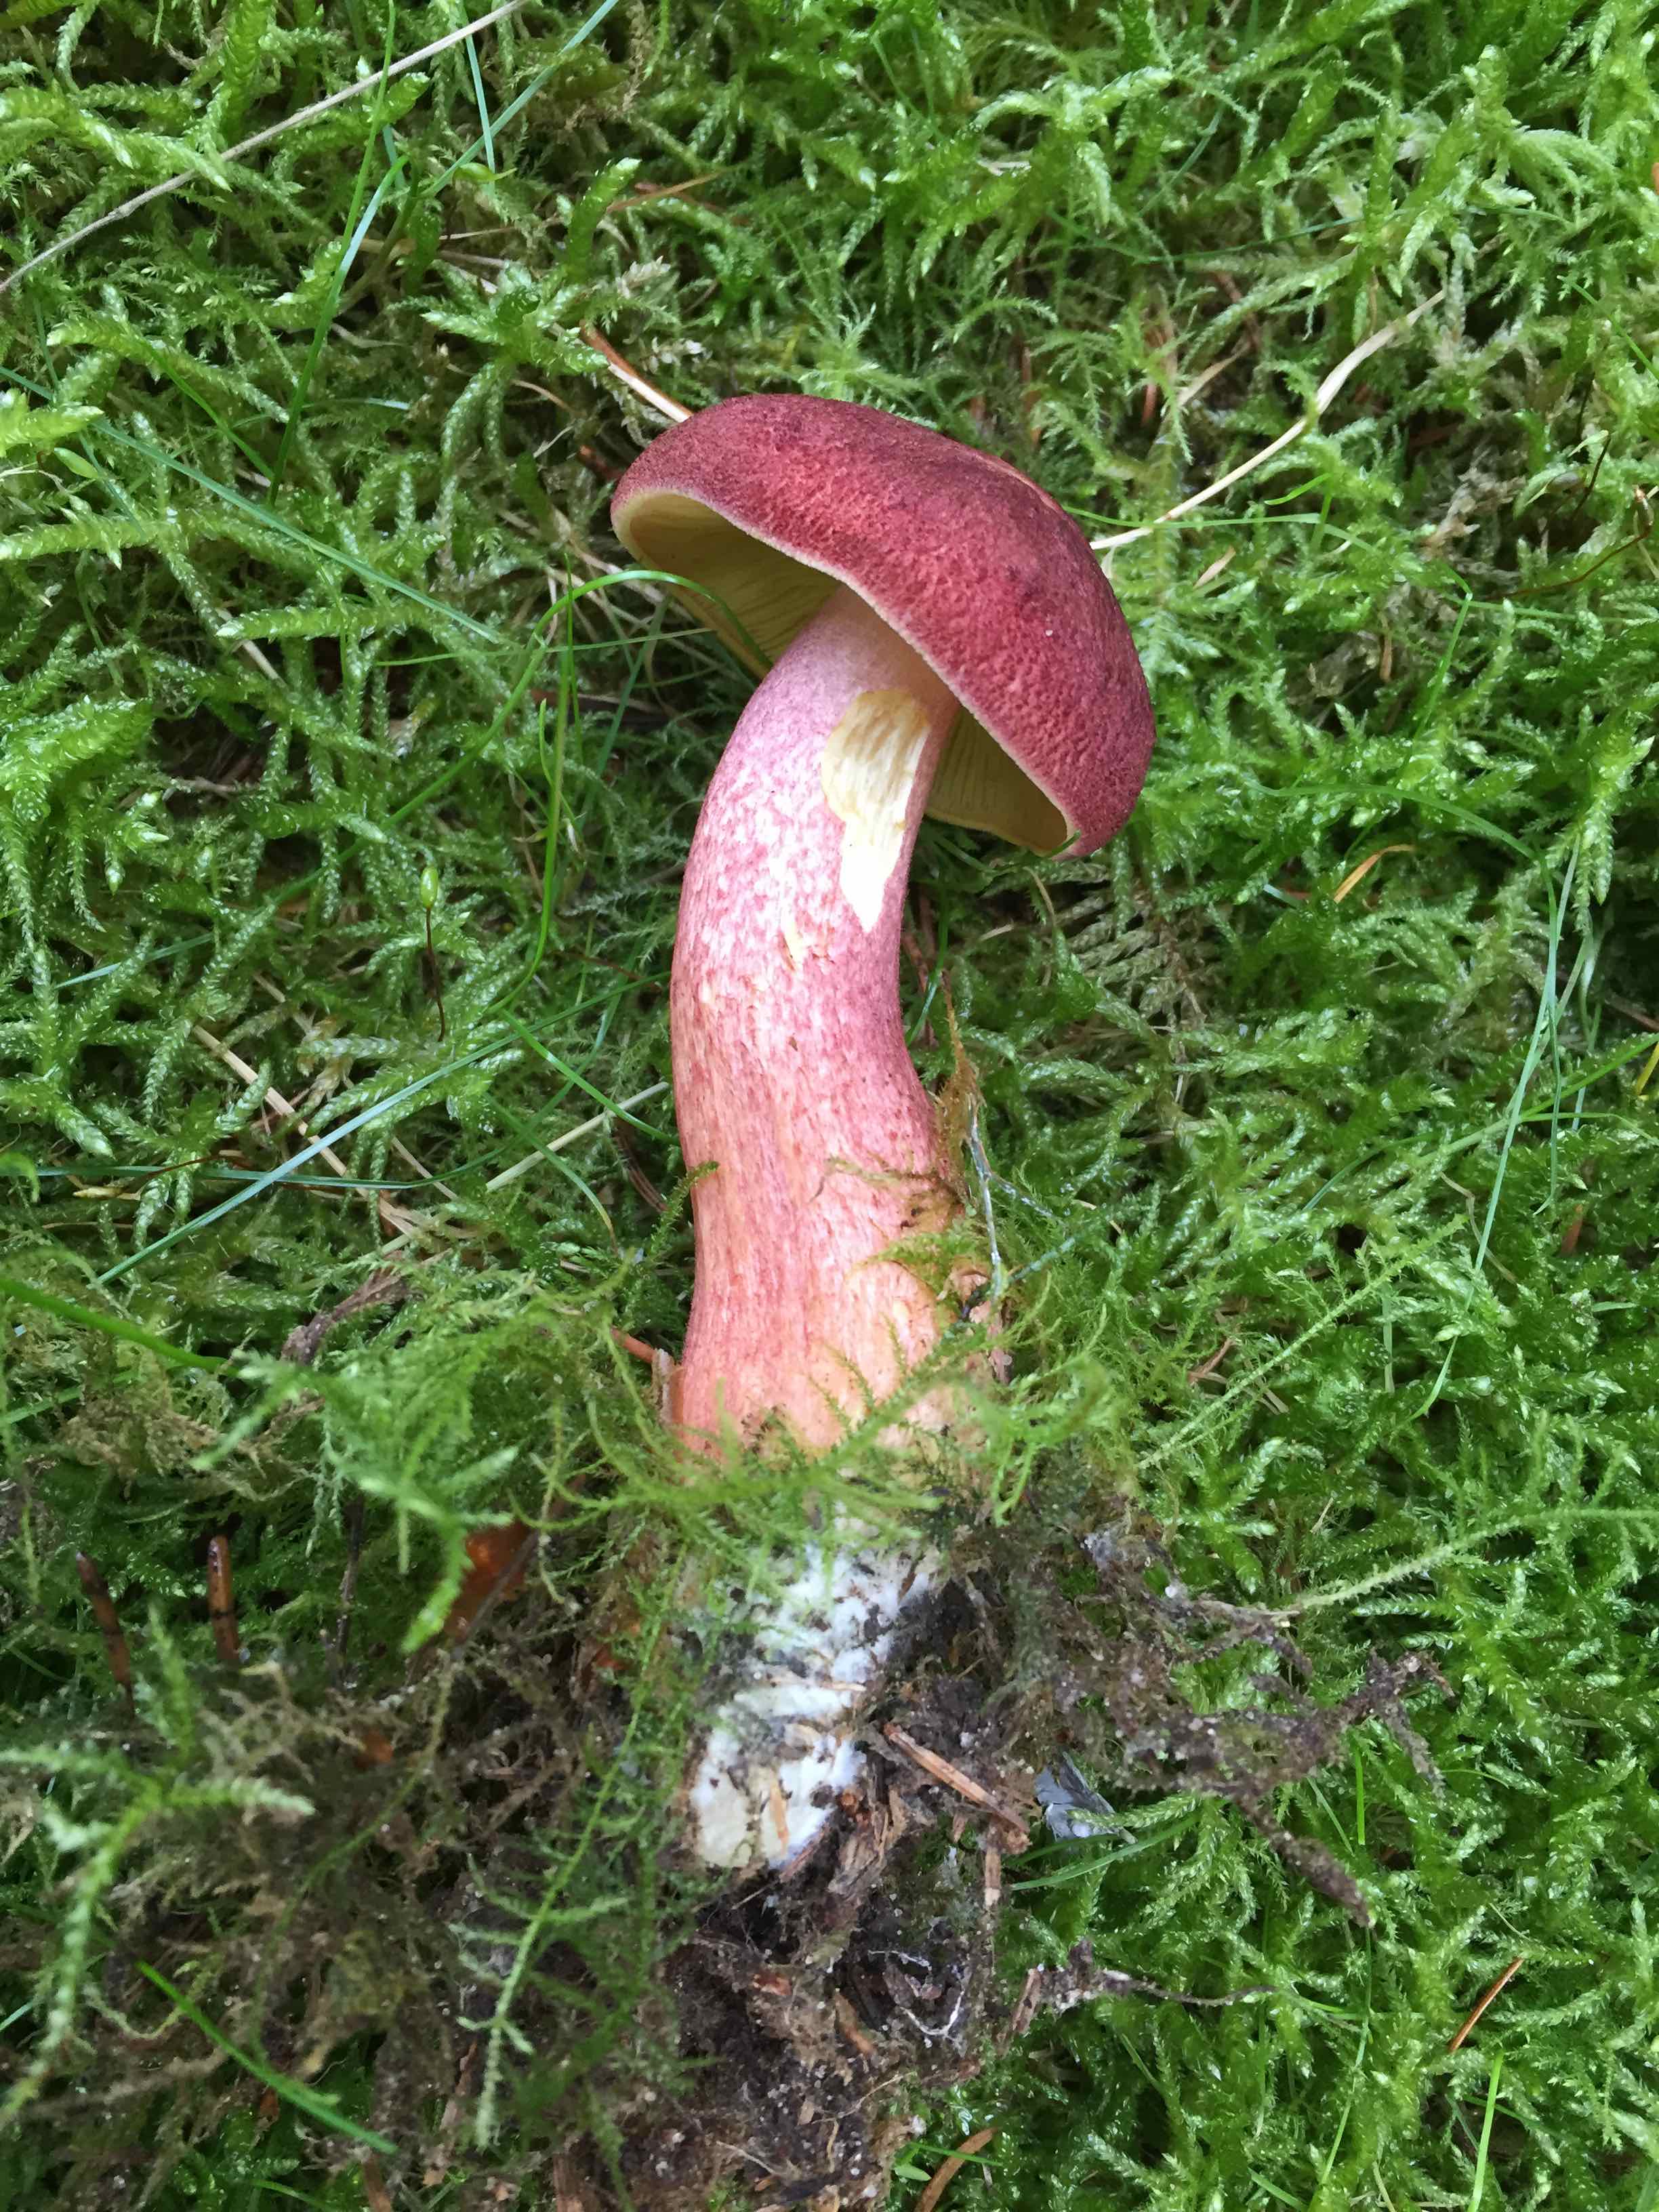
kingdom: Fungi
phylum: Basidiomycota
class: Agaricomycetes
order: Agaricales
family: Tricholomataceae
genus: Tricholomopsis
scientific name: Tricholomopsis rutilans
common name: purpur-væbnerhat
